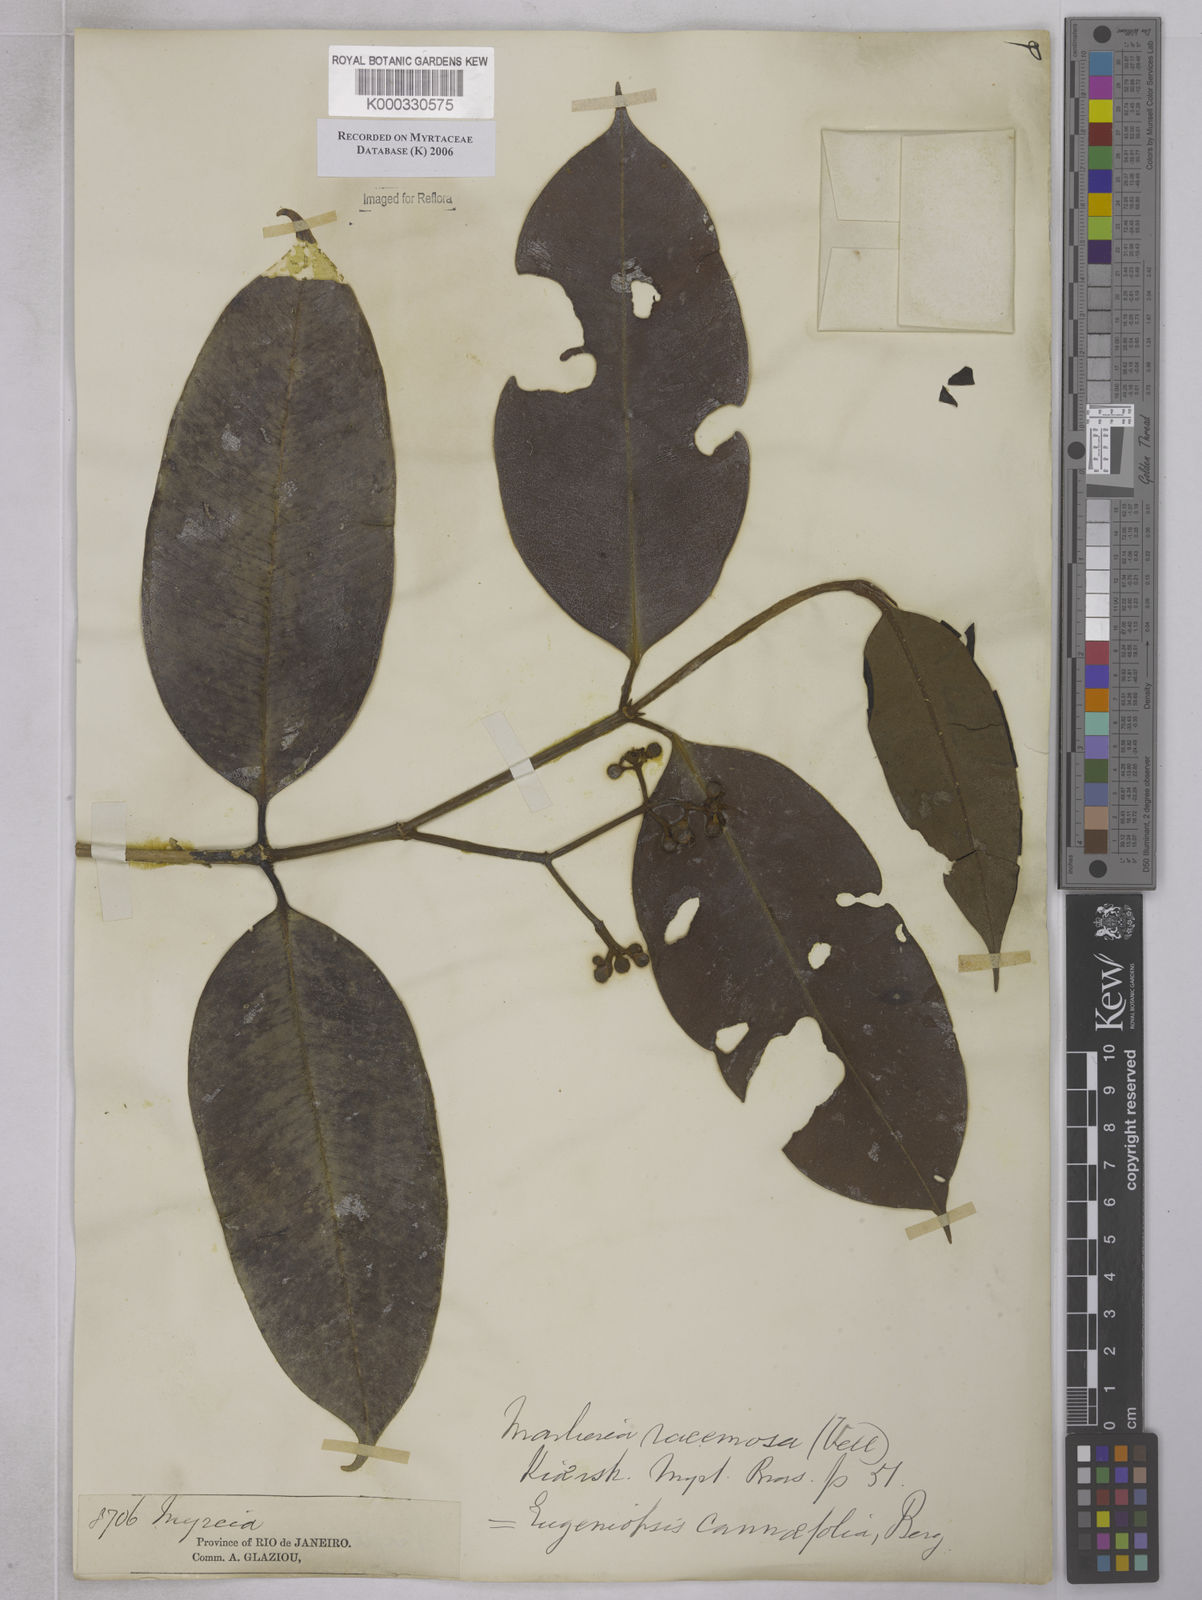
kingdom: Plantae
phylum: Tracheophyta
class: Magnoliopsida
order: Myrtales
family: Myrtaceae
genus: Myrcia
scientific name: Myrcia vellozoi
